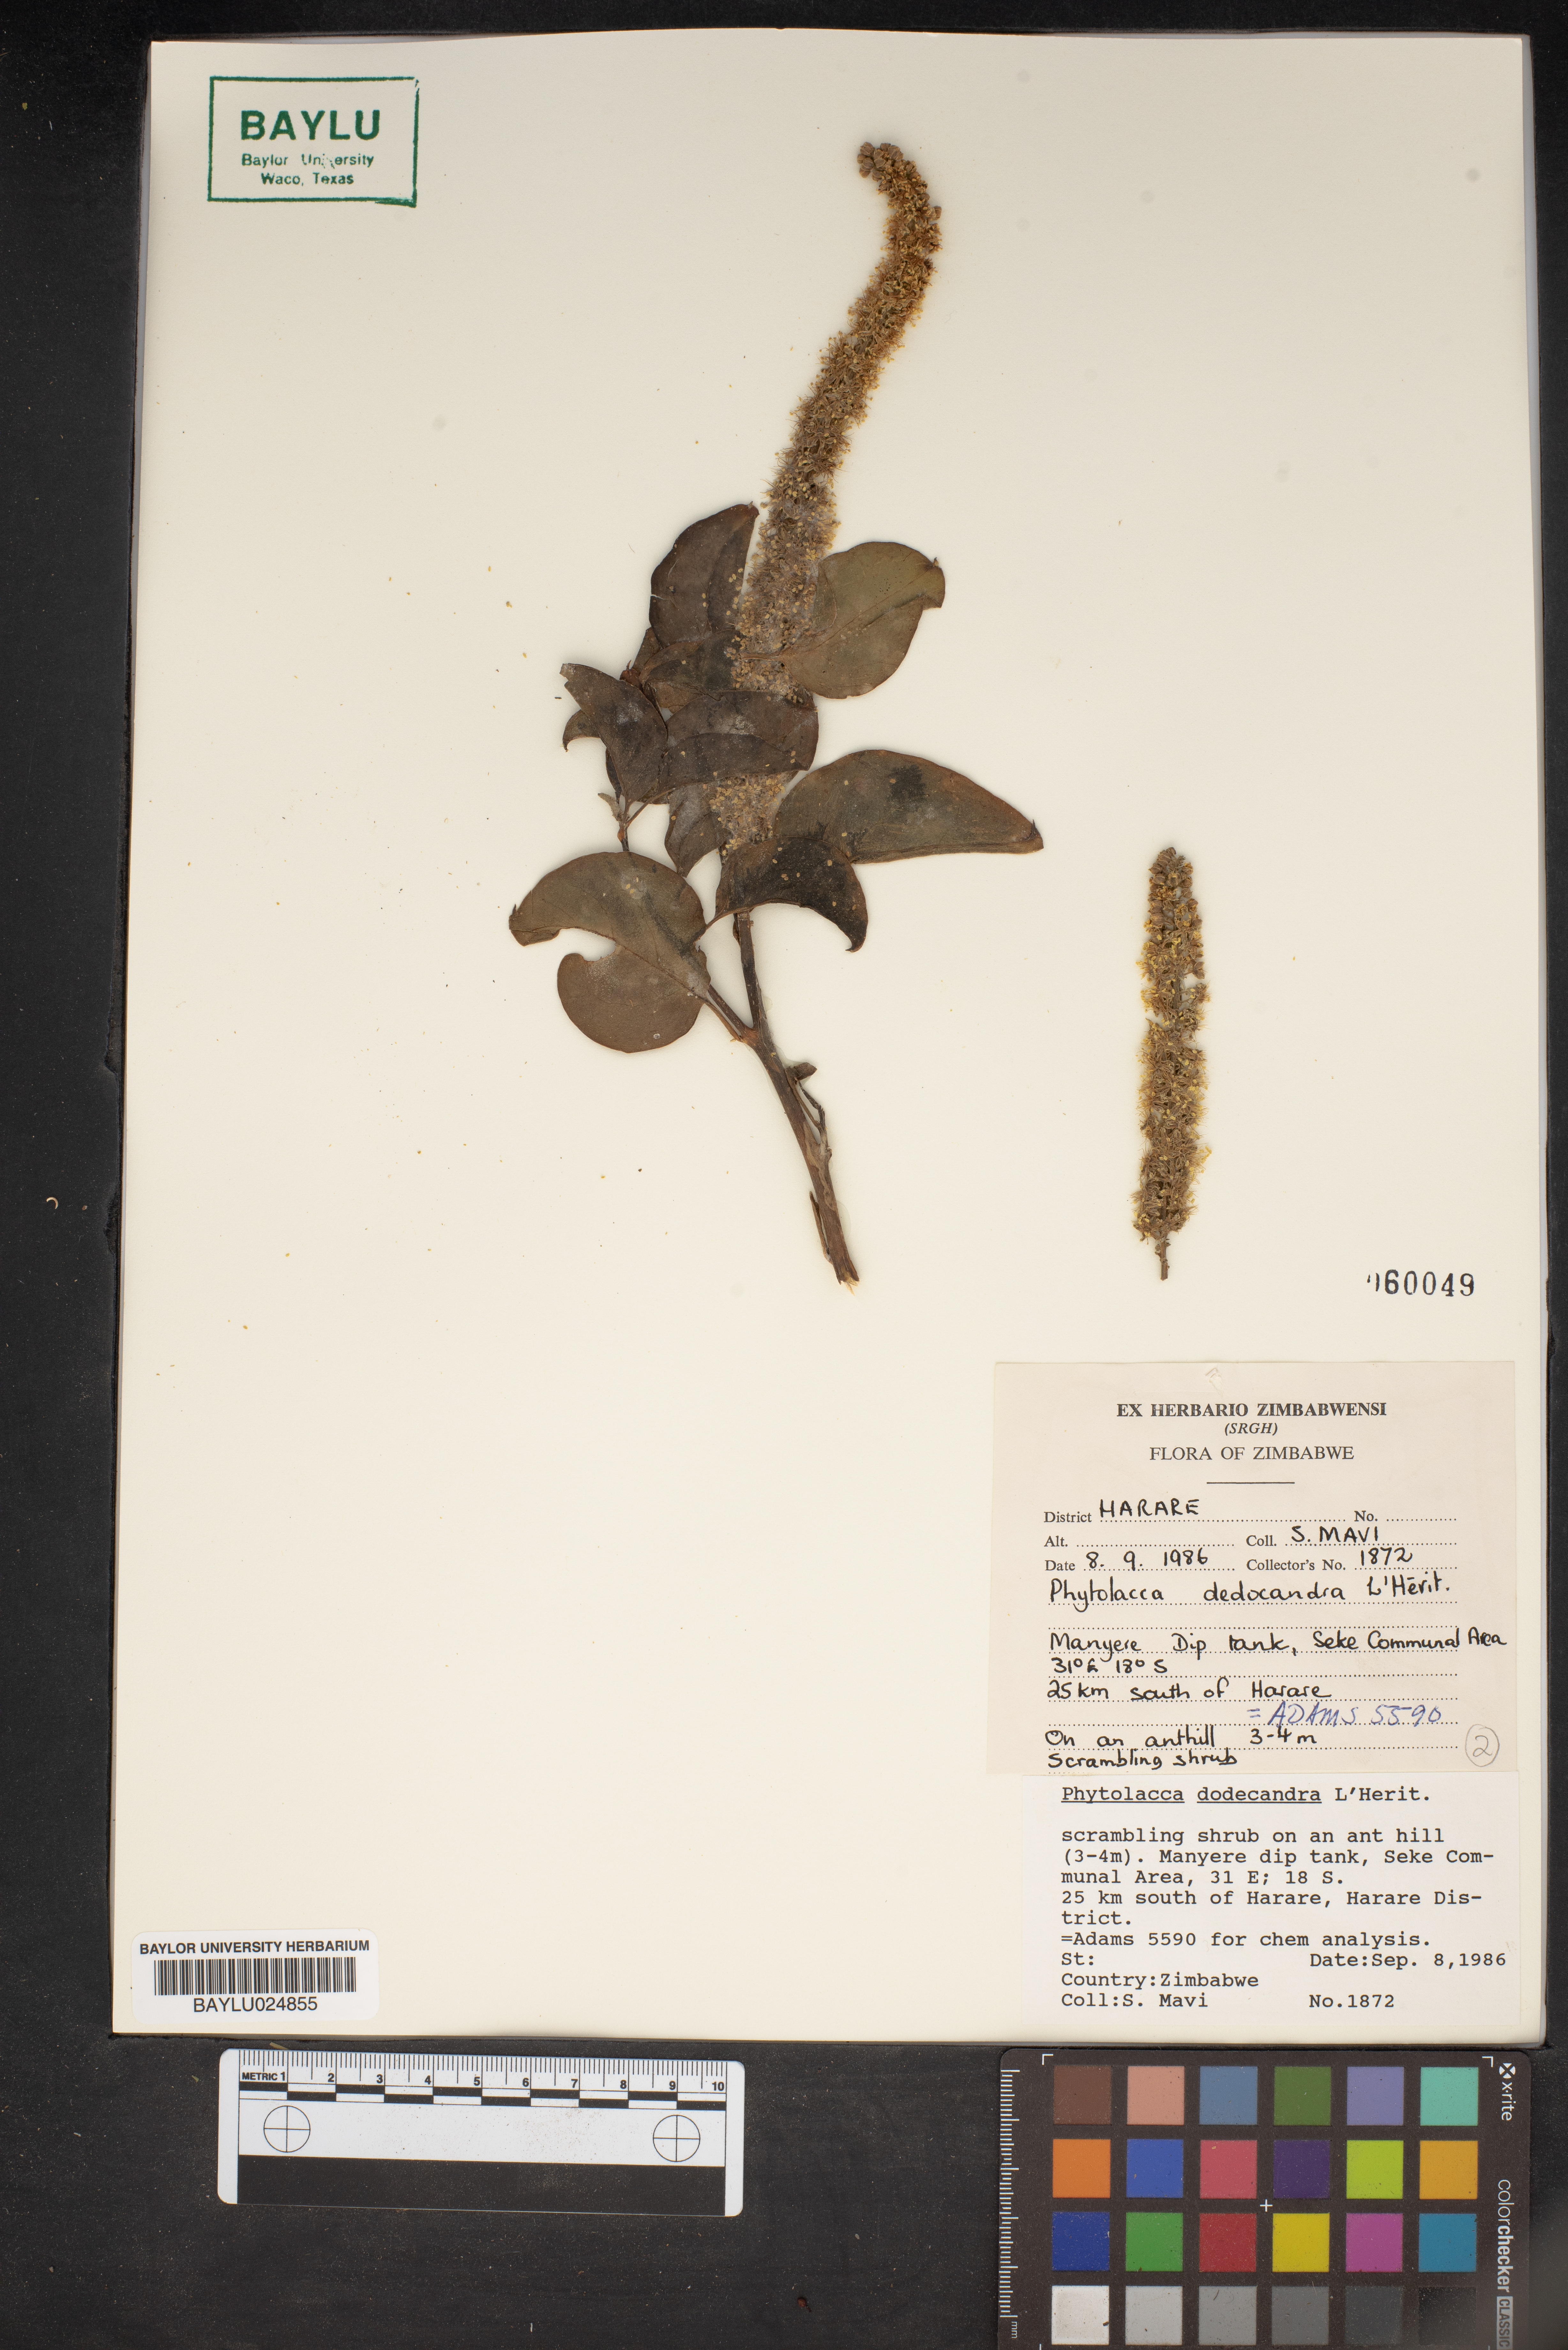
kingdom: Plantae
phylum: Tracheophyta
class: Magnoliopsida
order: Caryophyllales
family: Phytolaccaceae
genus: Phytolacca
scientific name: Phytolacca dodecandra
